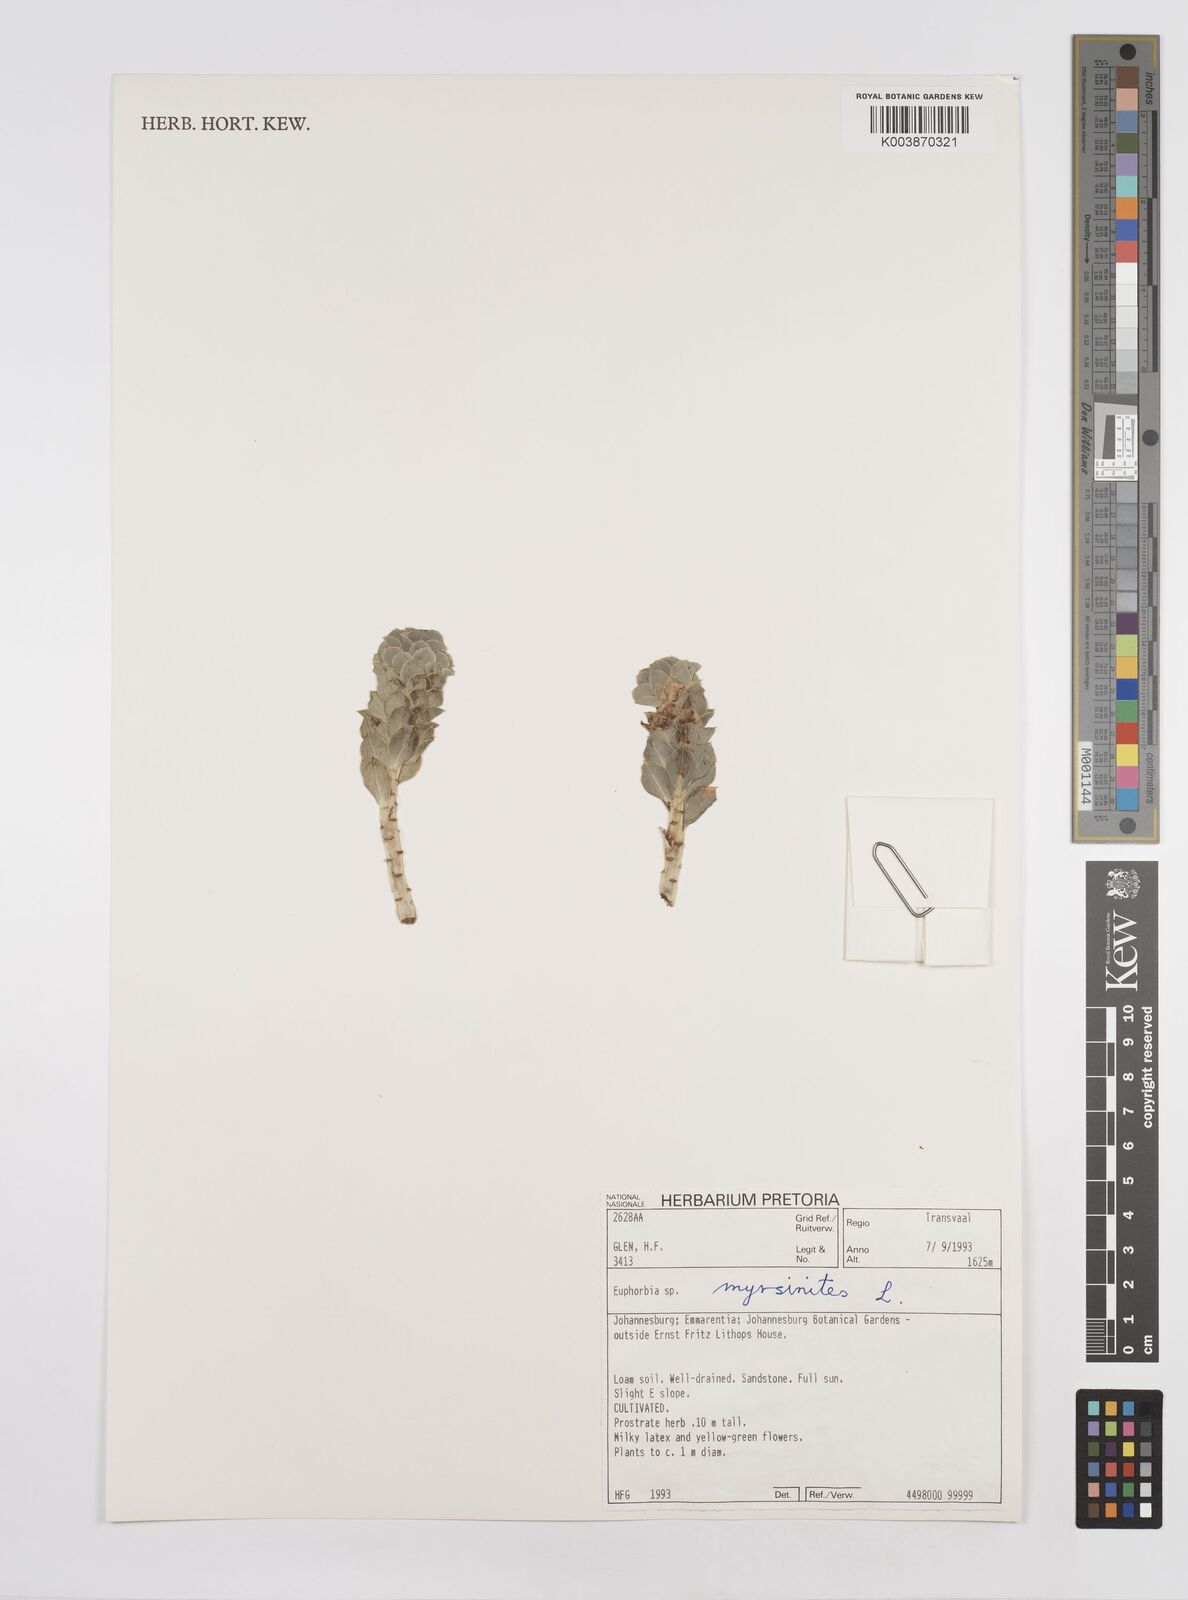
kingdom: Plantae
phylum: Tracheophyta
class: Magnoliopsida
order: Malpighiales
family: Euphorbiaceae
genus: Euphorbia
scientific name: Euphorbia myrsinites
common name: Myrtle spurge
